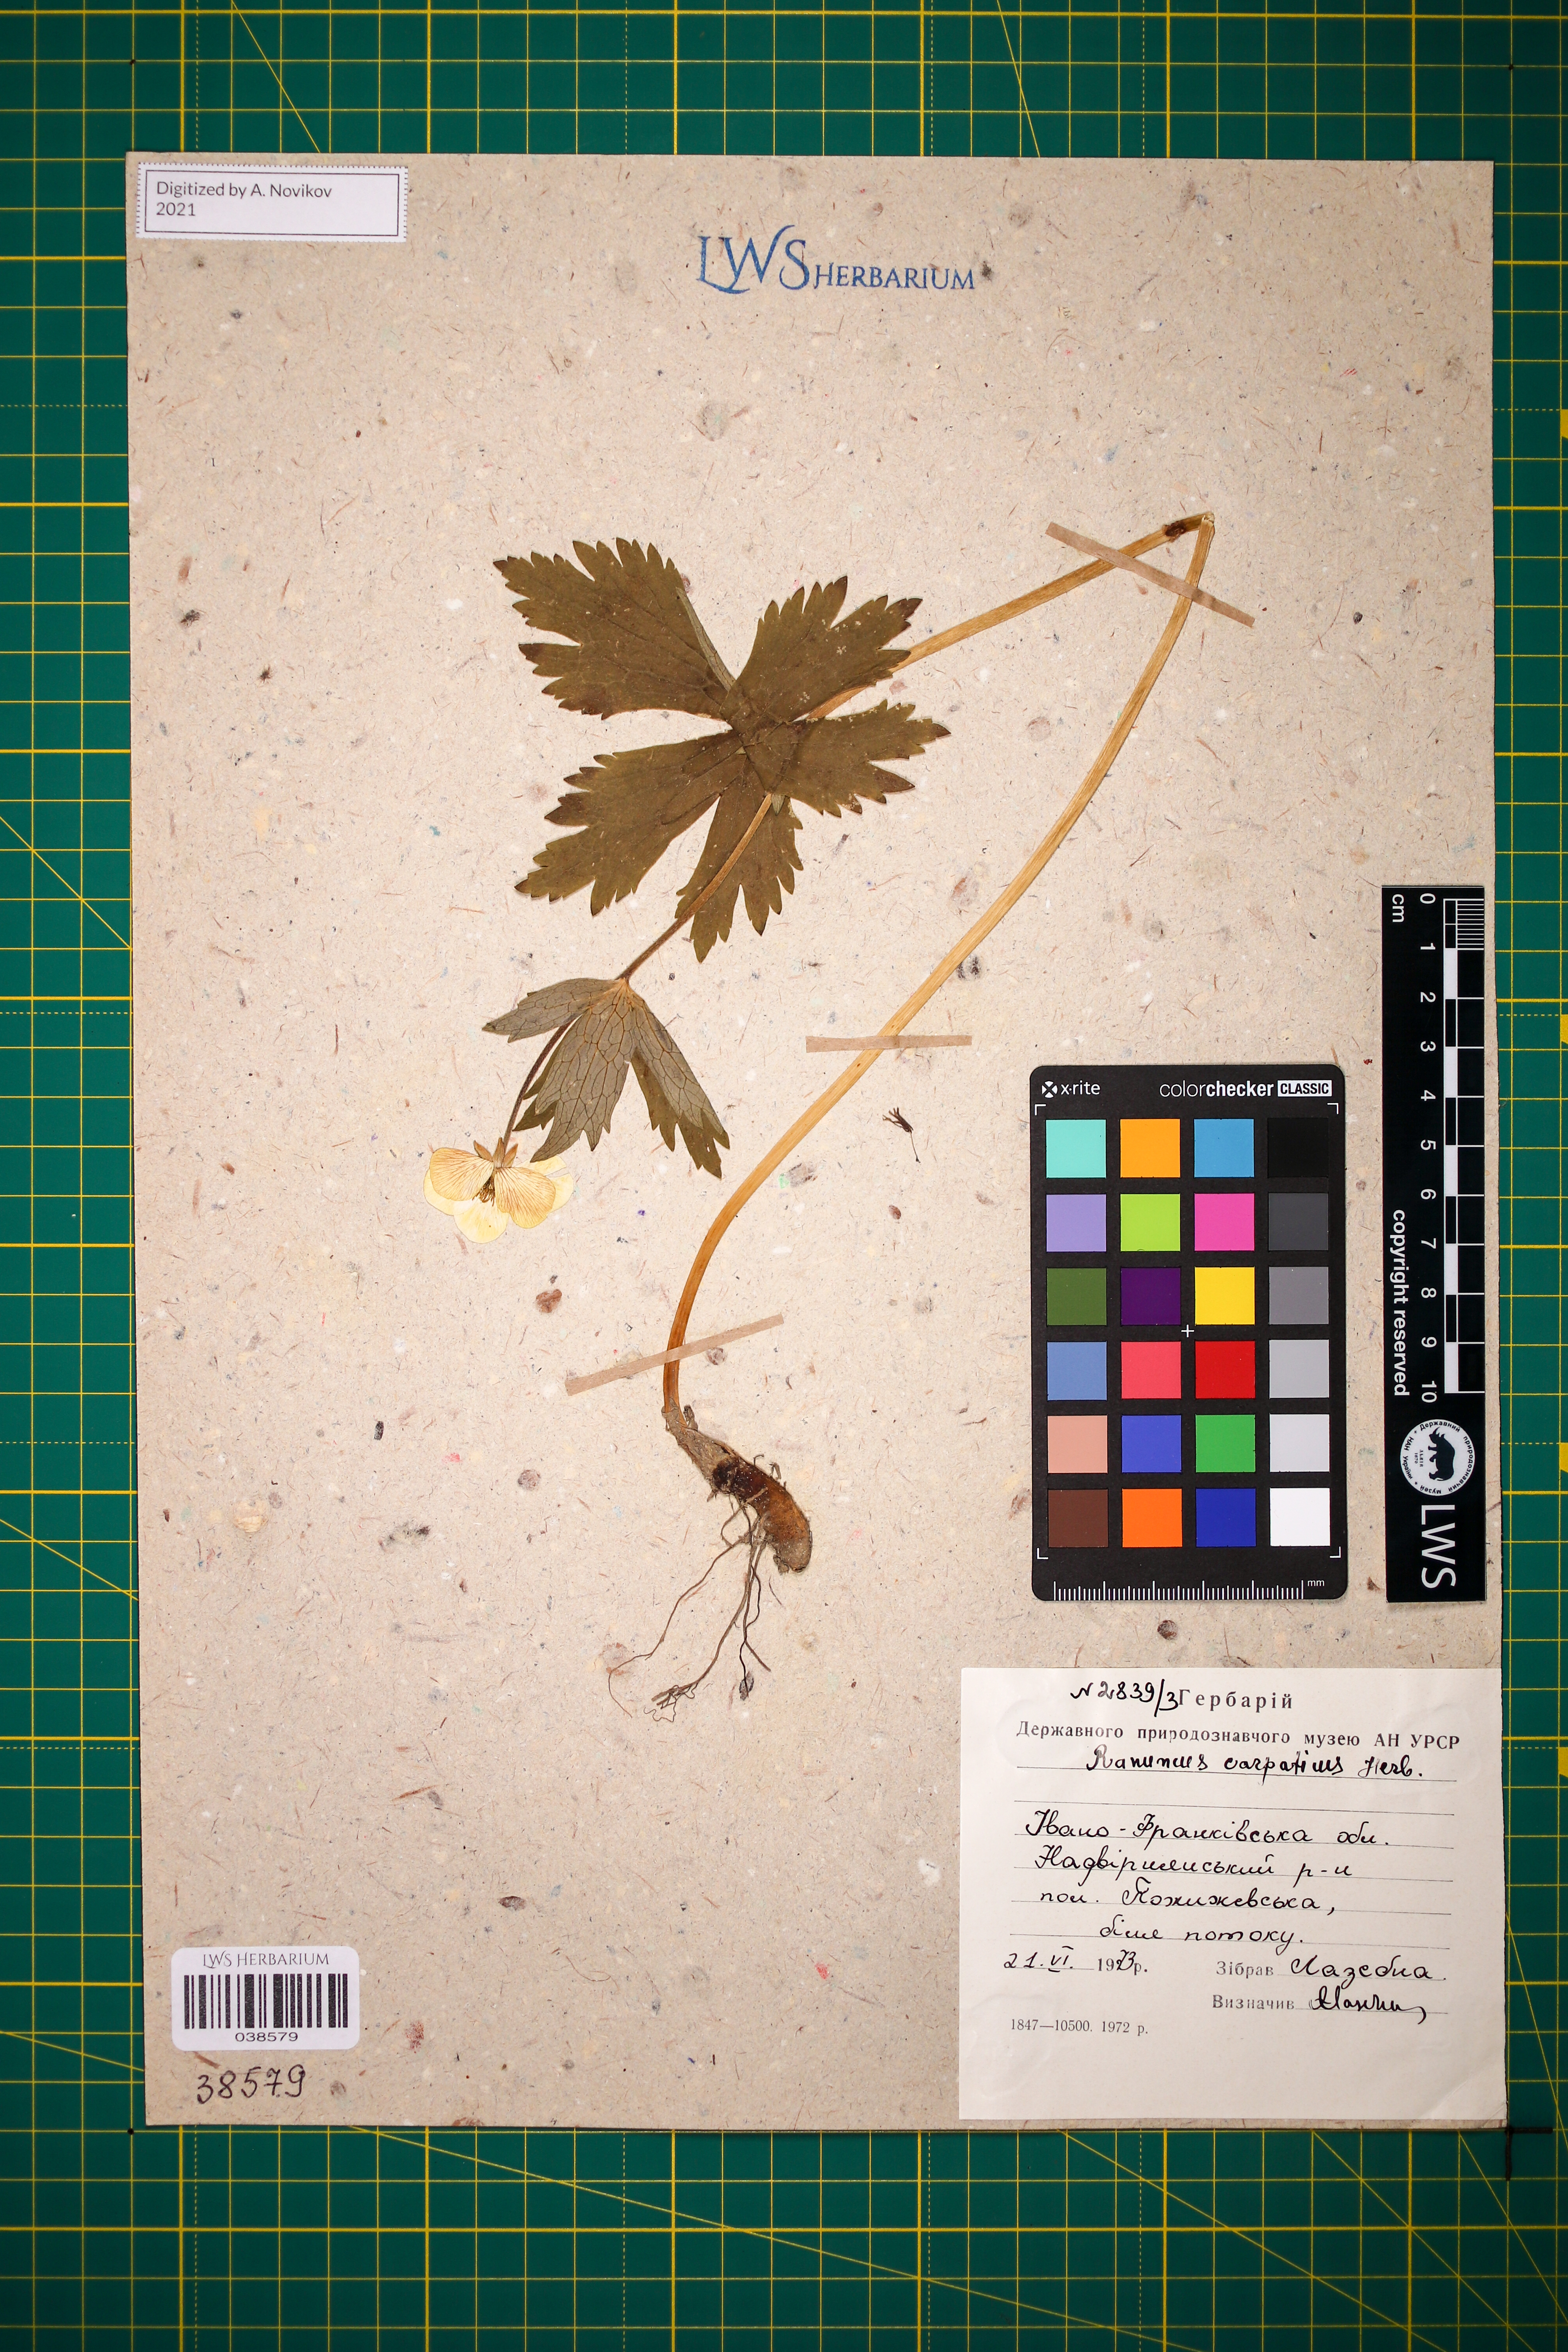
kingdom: Plantae
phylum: Tracheophyta
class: Magnoliopsida
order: Ranunculales
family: Ranunculaceae
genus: Ranunculus
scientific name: Ranunculus carpaticus
